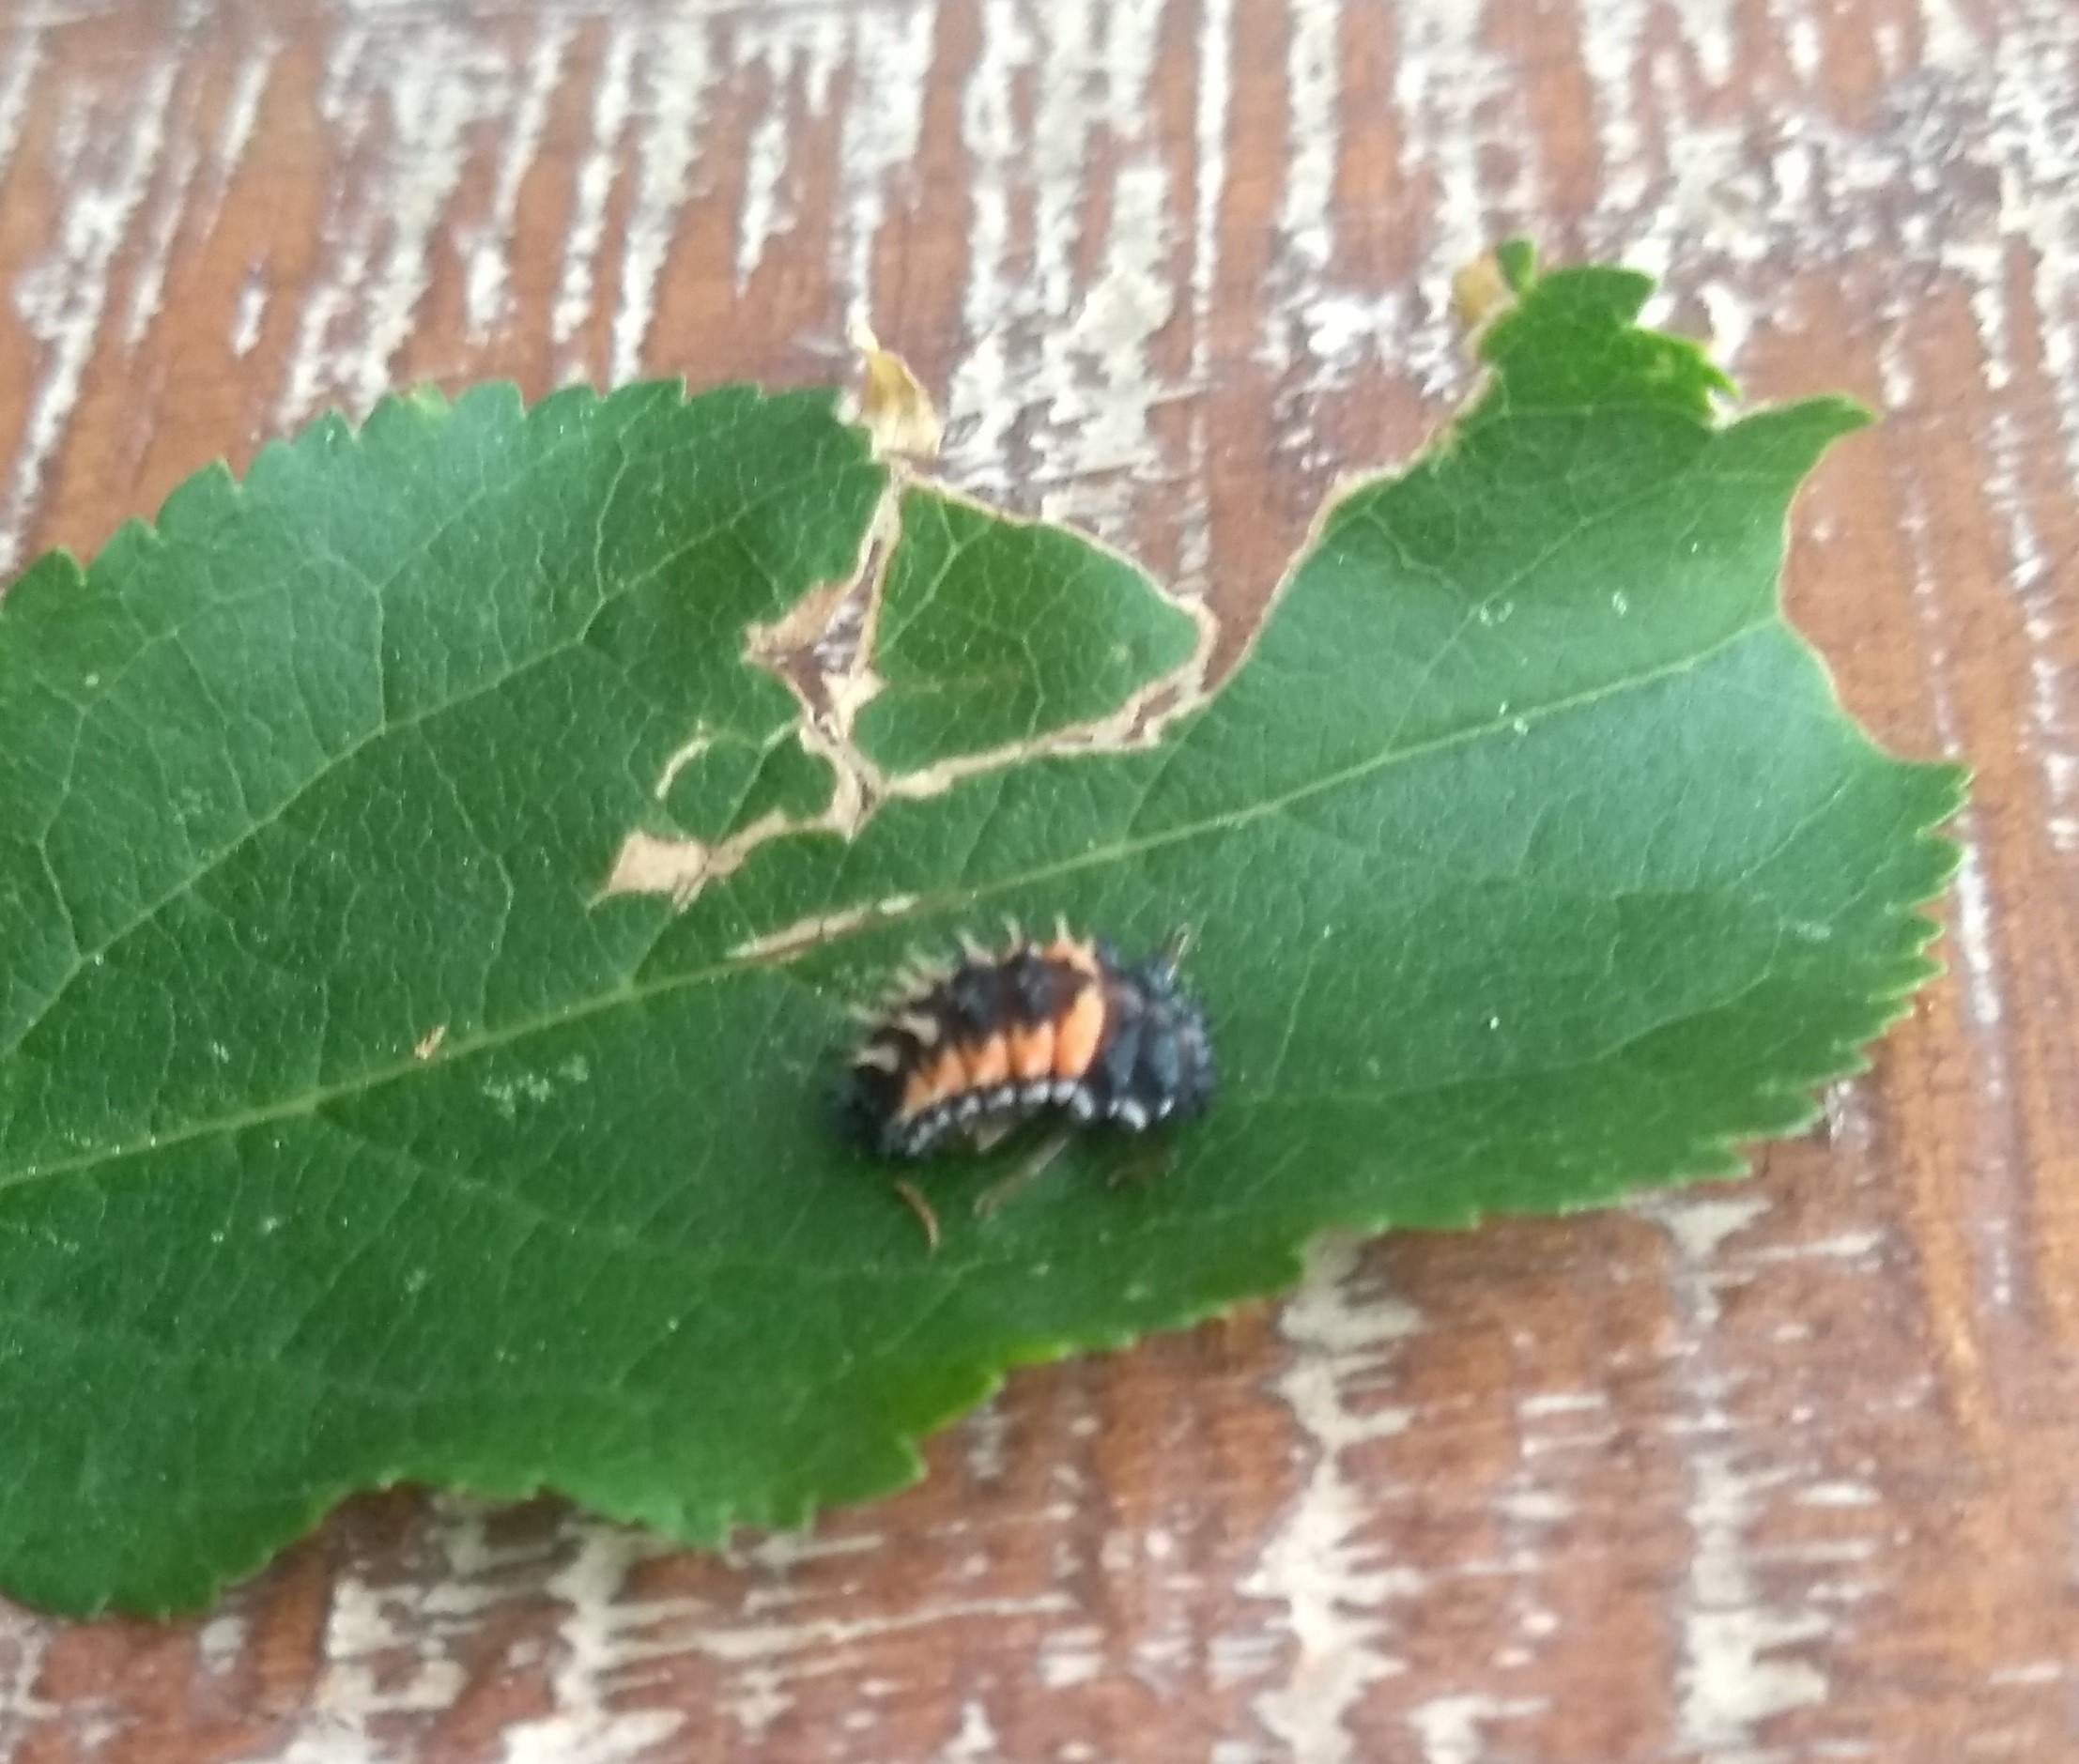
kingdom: Animalia
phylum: Arthropoda
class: Insecta
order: Coleoptera
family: Coccinellidae
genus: Harmonia
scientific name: Harmonia axyridis
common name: Harlekinmariehøne
